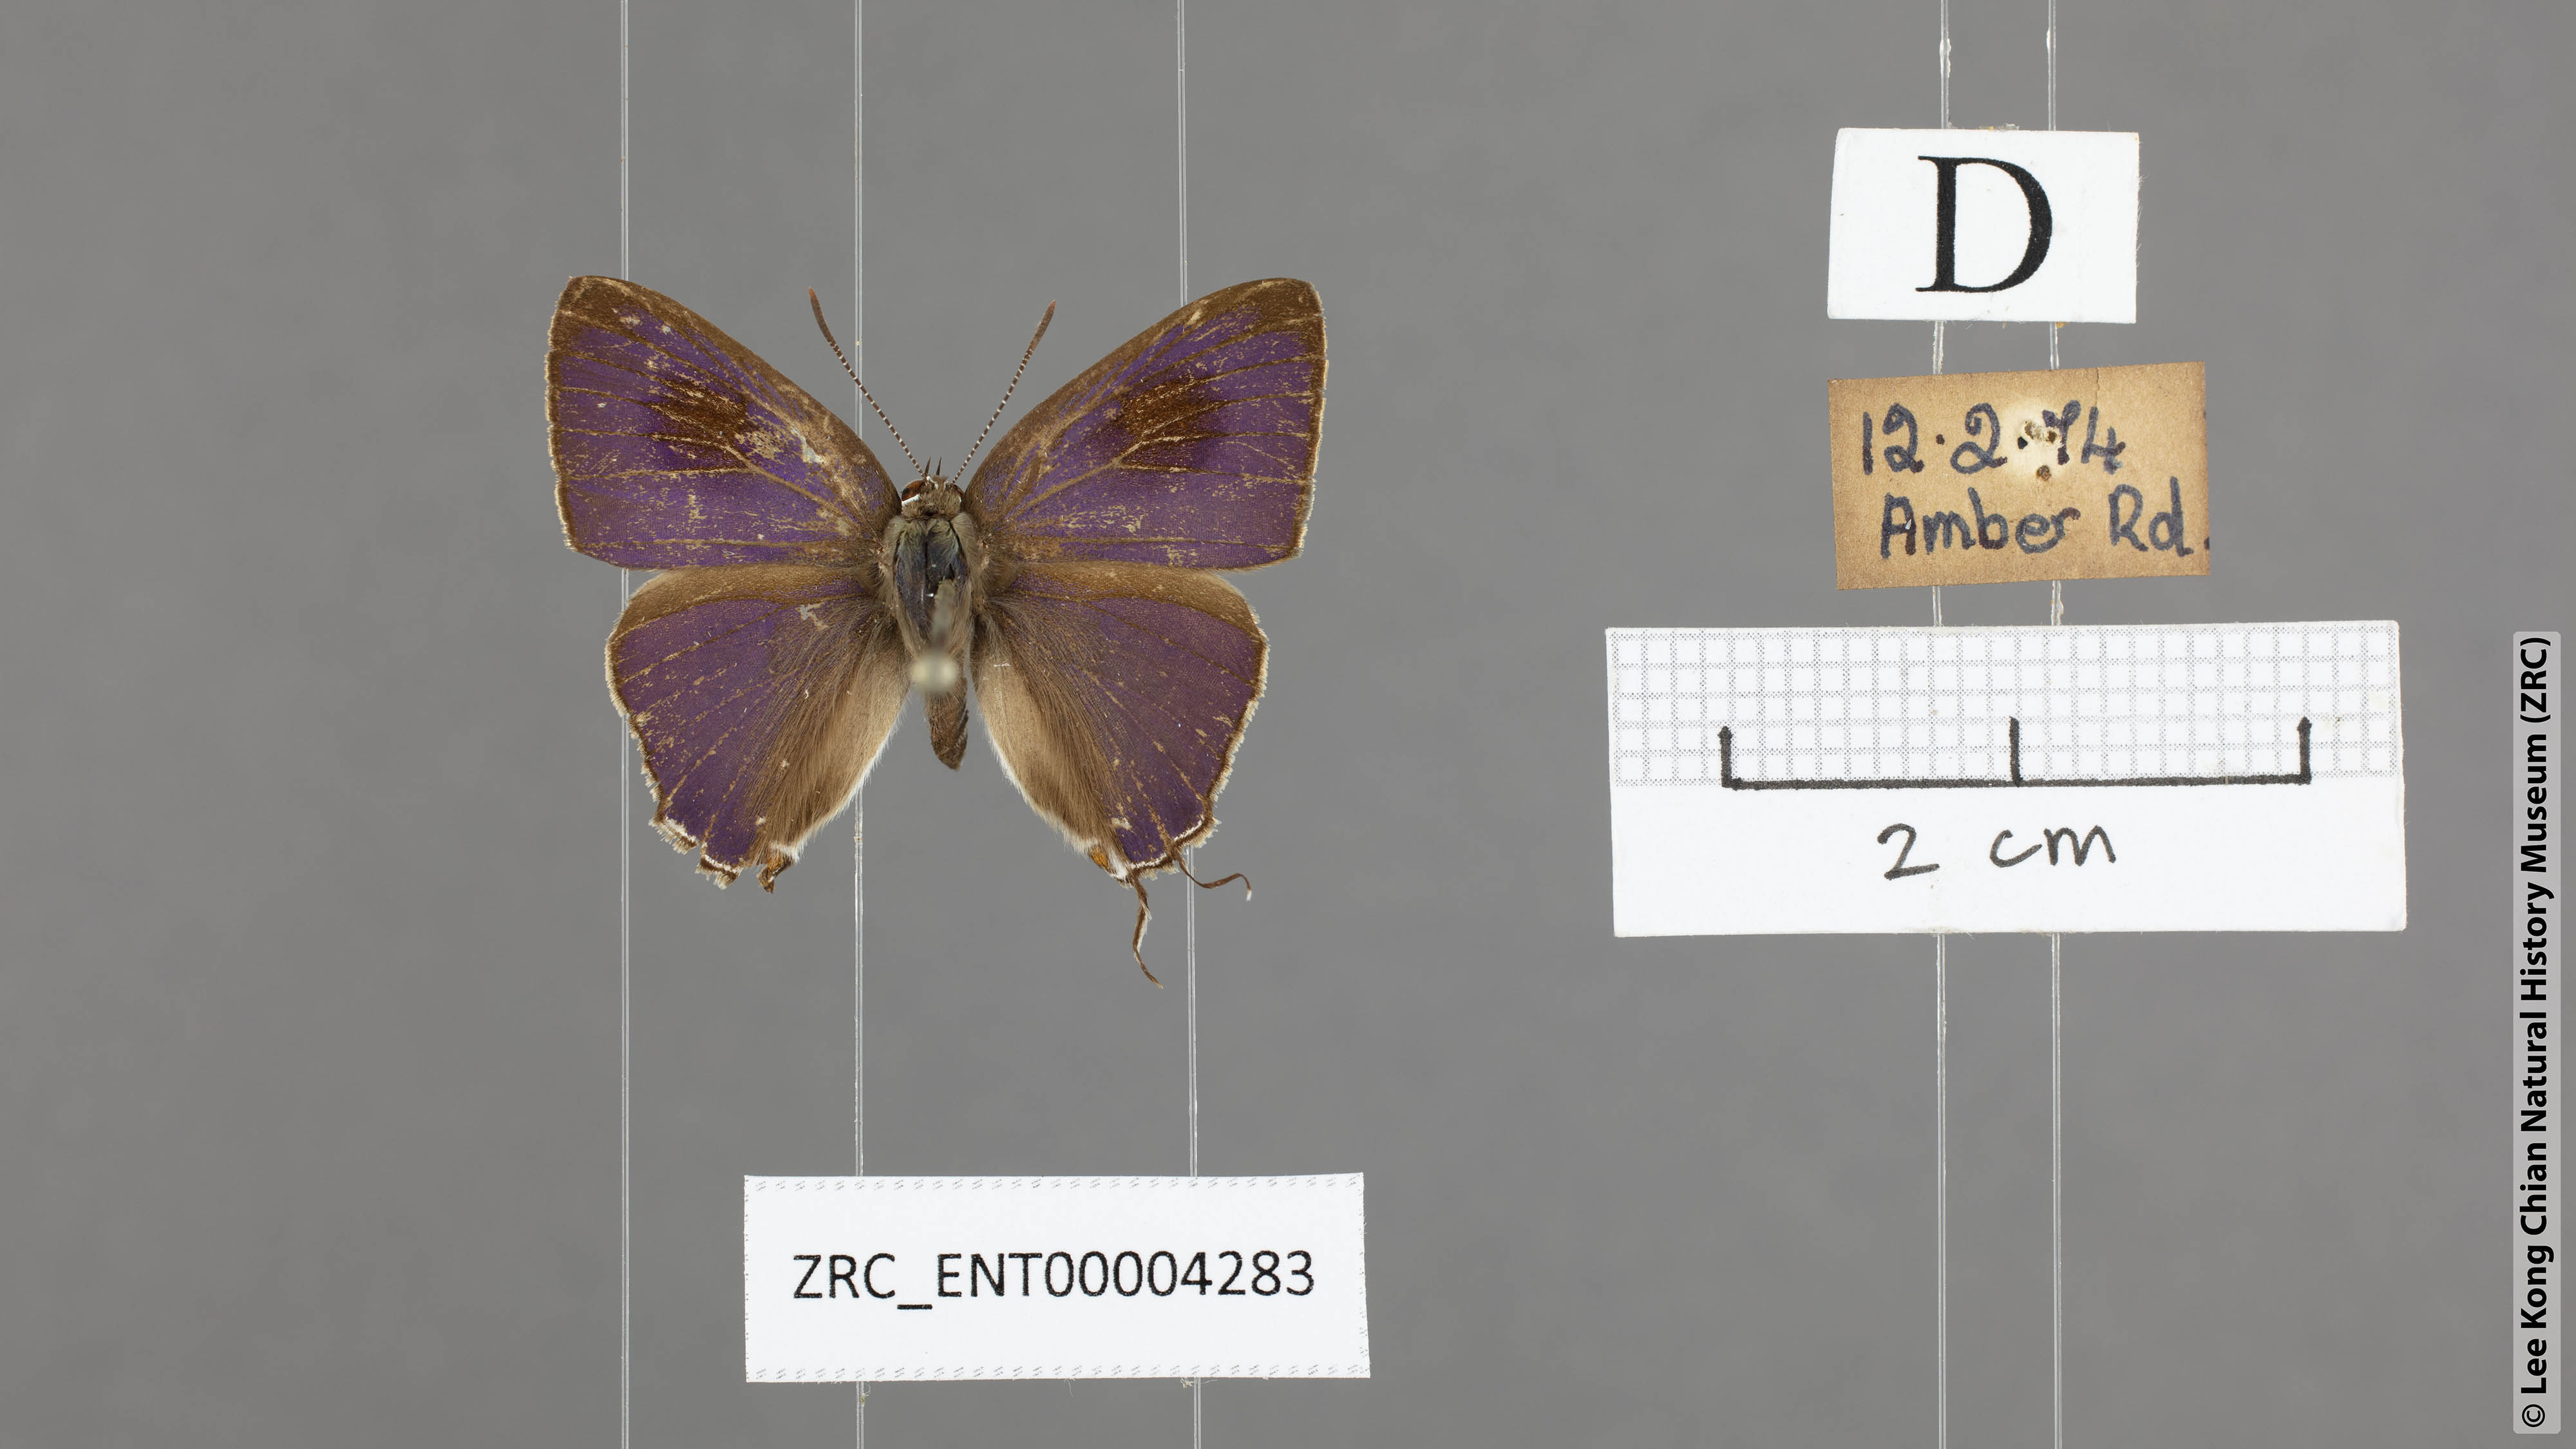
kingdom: Animalia
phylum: Arthropoda
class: Insecta
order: Lepidoptera
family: Lycaenidae
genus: Hypolycaena
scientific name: Hypolycaena erylus
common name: Common tit
